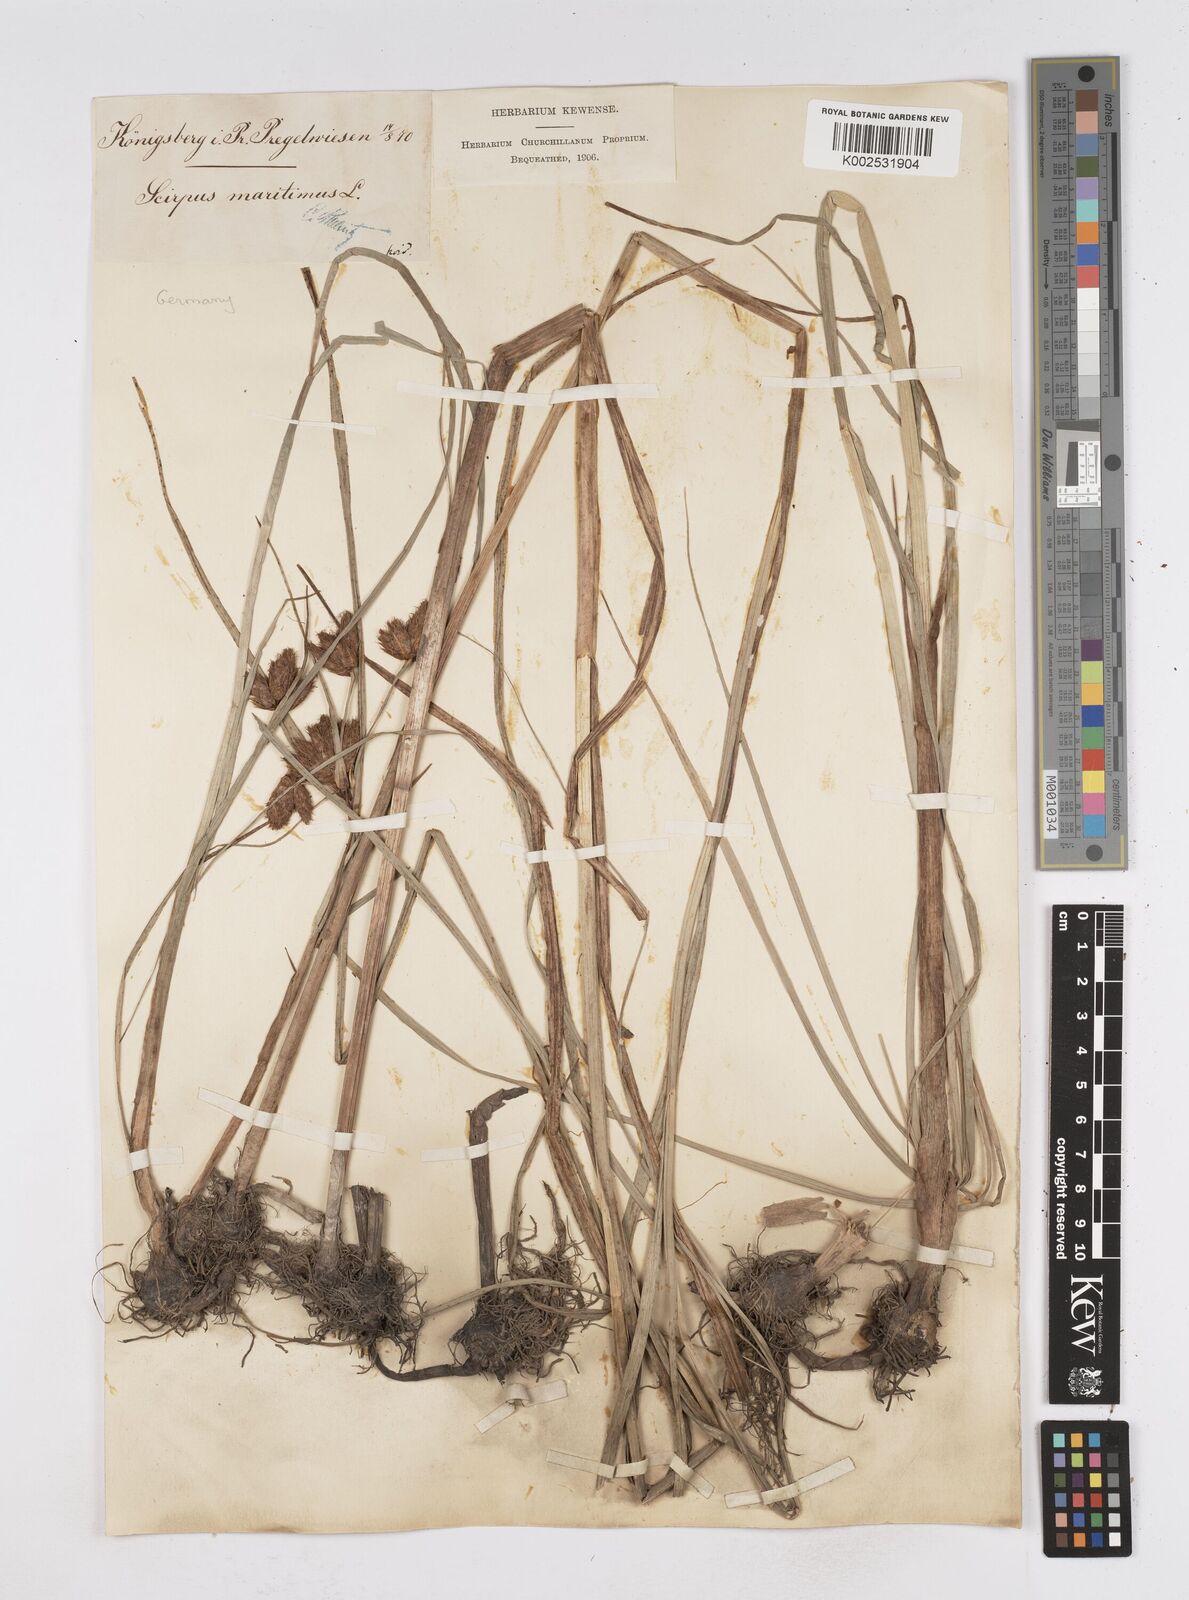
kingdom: Plantae
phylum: Tracheophyta
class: Liliopsida
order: Poales
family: Cyperaceae
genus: Bolboschoenus
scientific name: Bolboschoenus maritimus
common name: Sea club-rush
